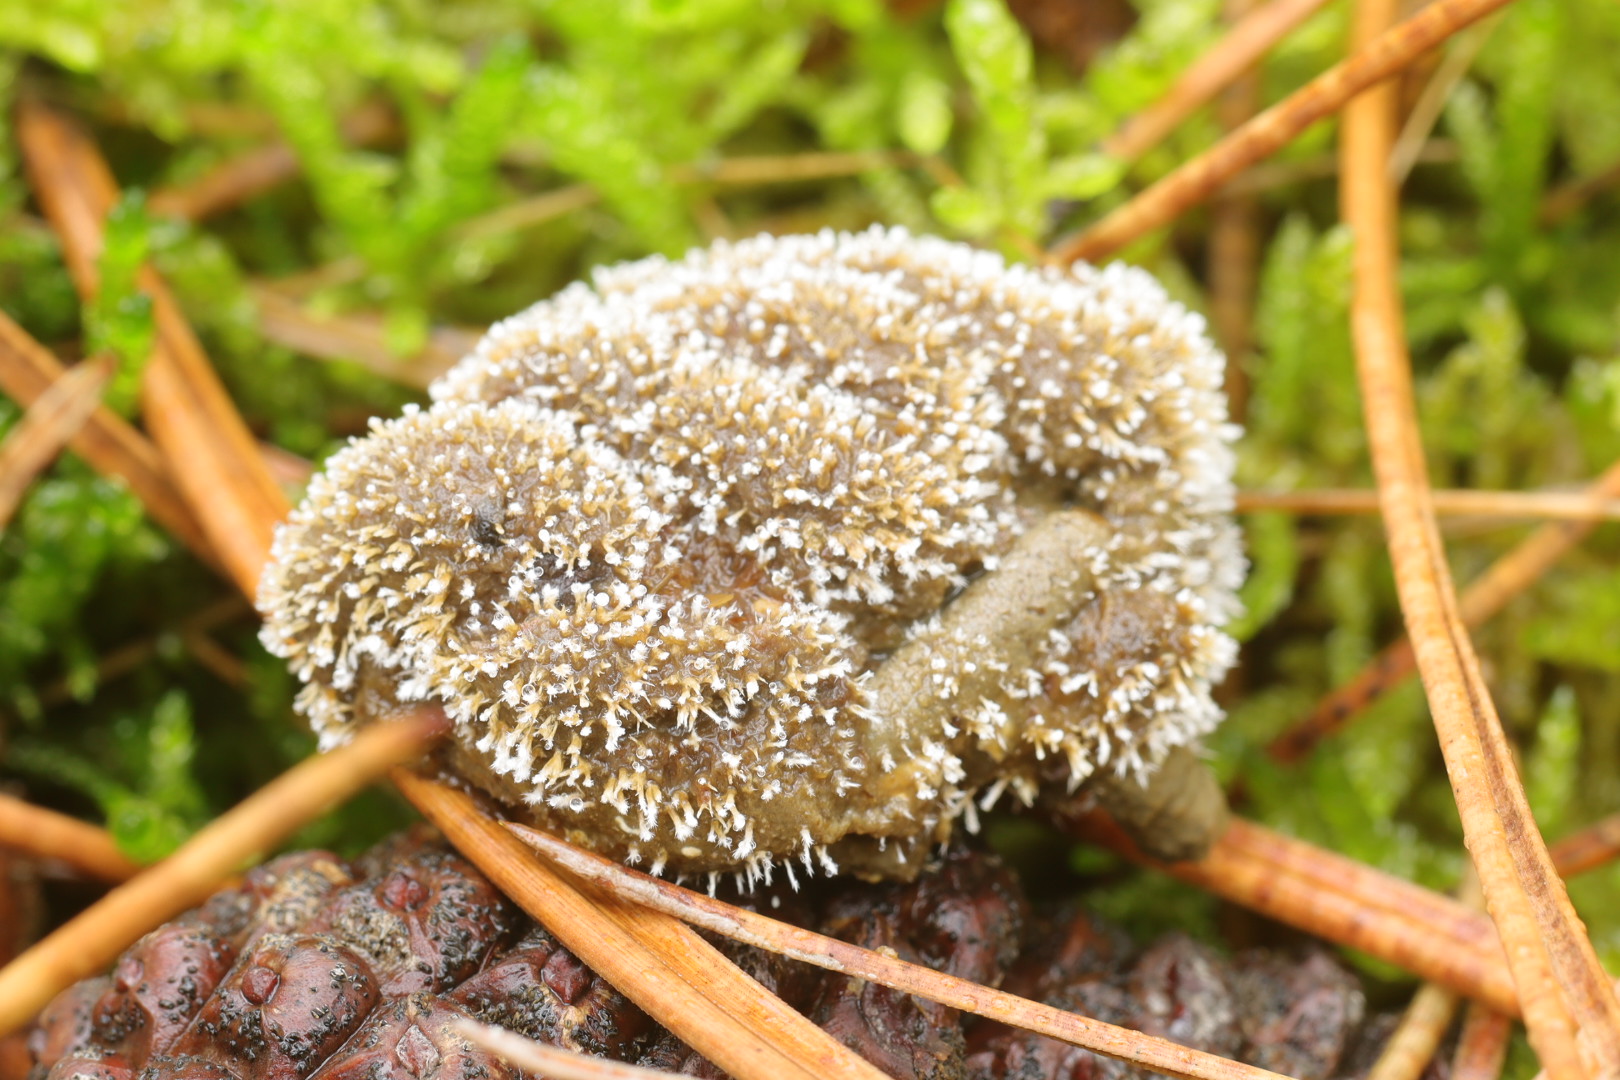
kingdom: Fungi
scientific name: Fungi
